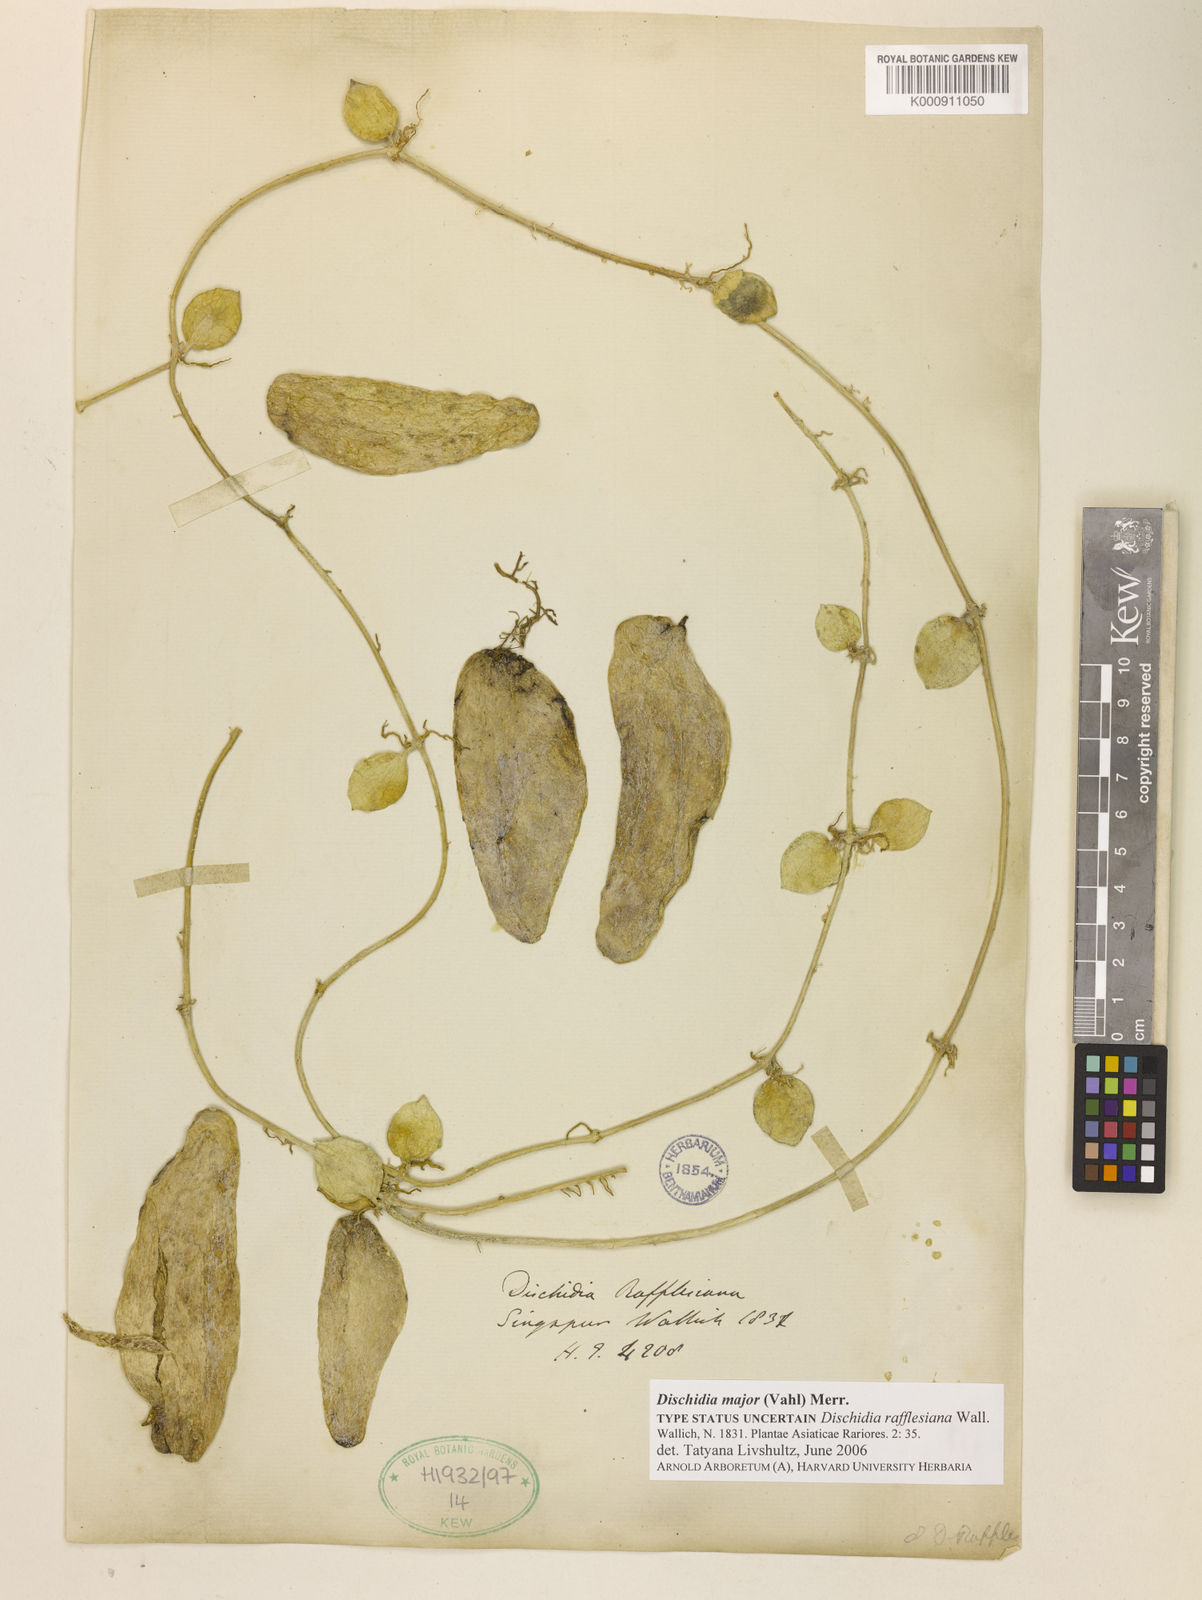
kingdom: Plantae
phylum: Tracheophyta
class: Magnoliopsida
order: Gentianales
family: Apocynaceae
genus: Dischidia
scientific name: Dischidia major
